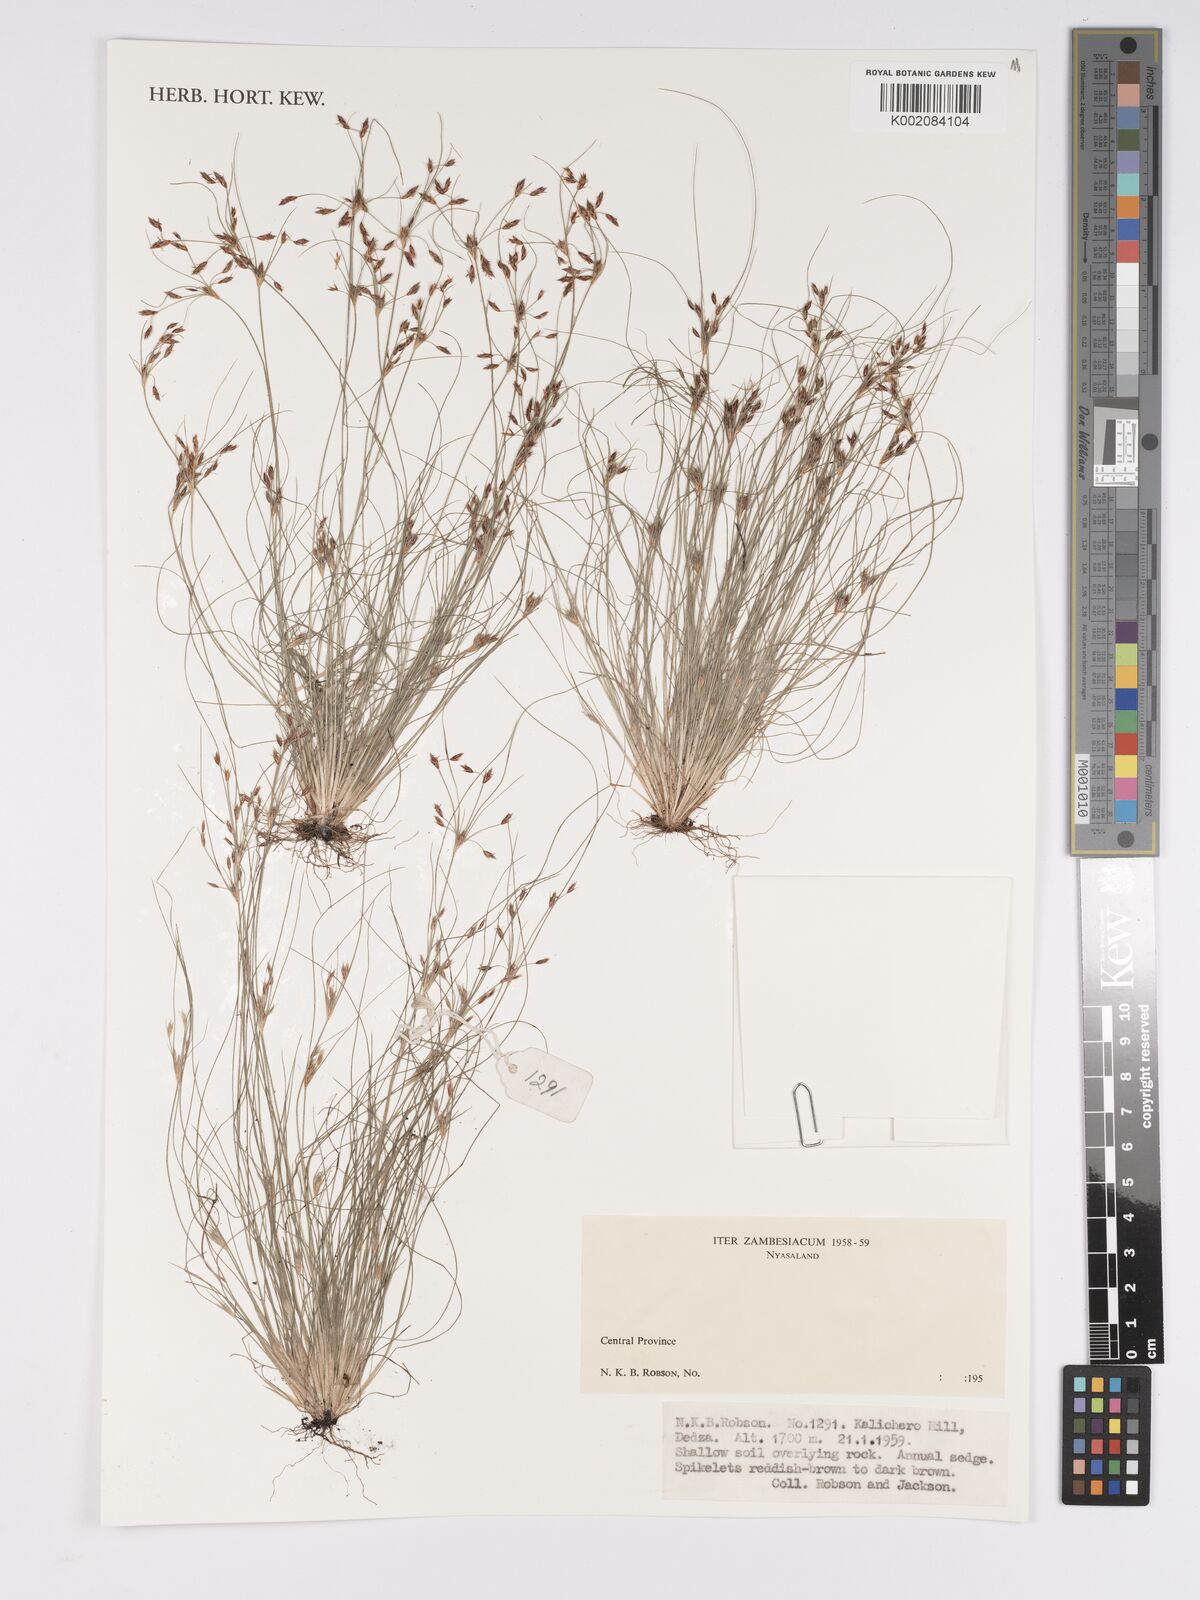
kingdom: Plantae
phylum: Tracheophyta
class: Liliopsida
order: Poales
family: Cyperaceae
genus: Bulbostylis
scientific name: Bulbostylis
